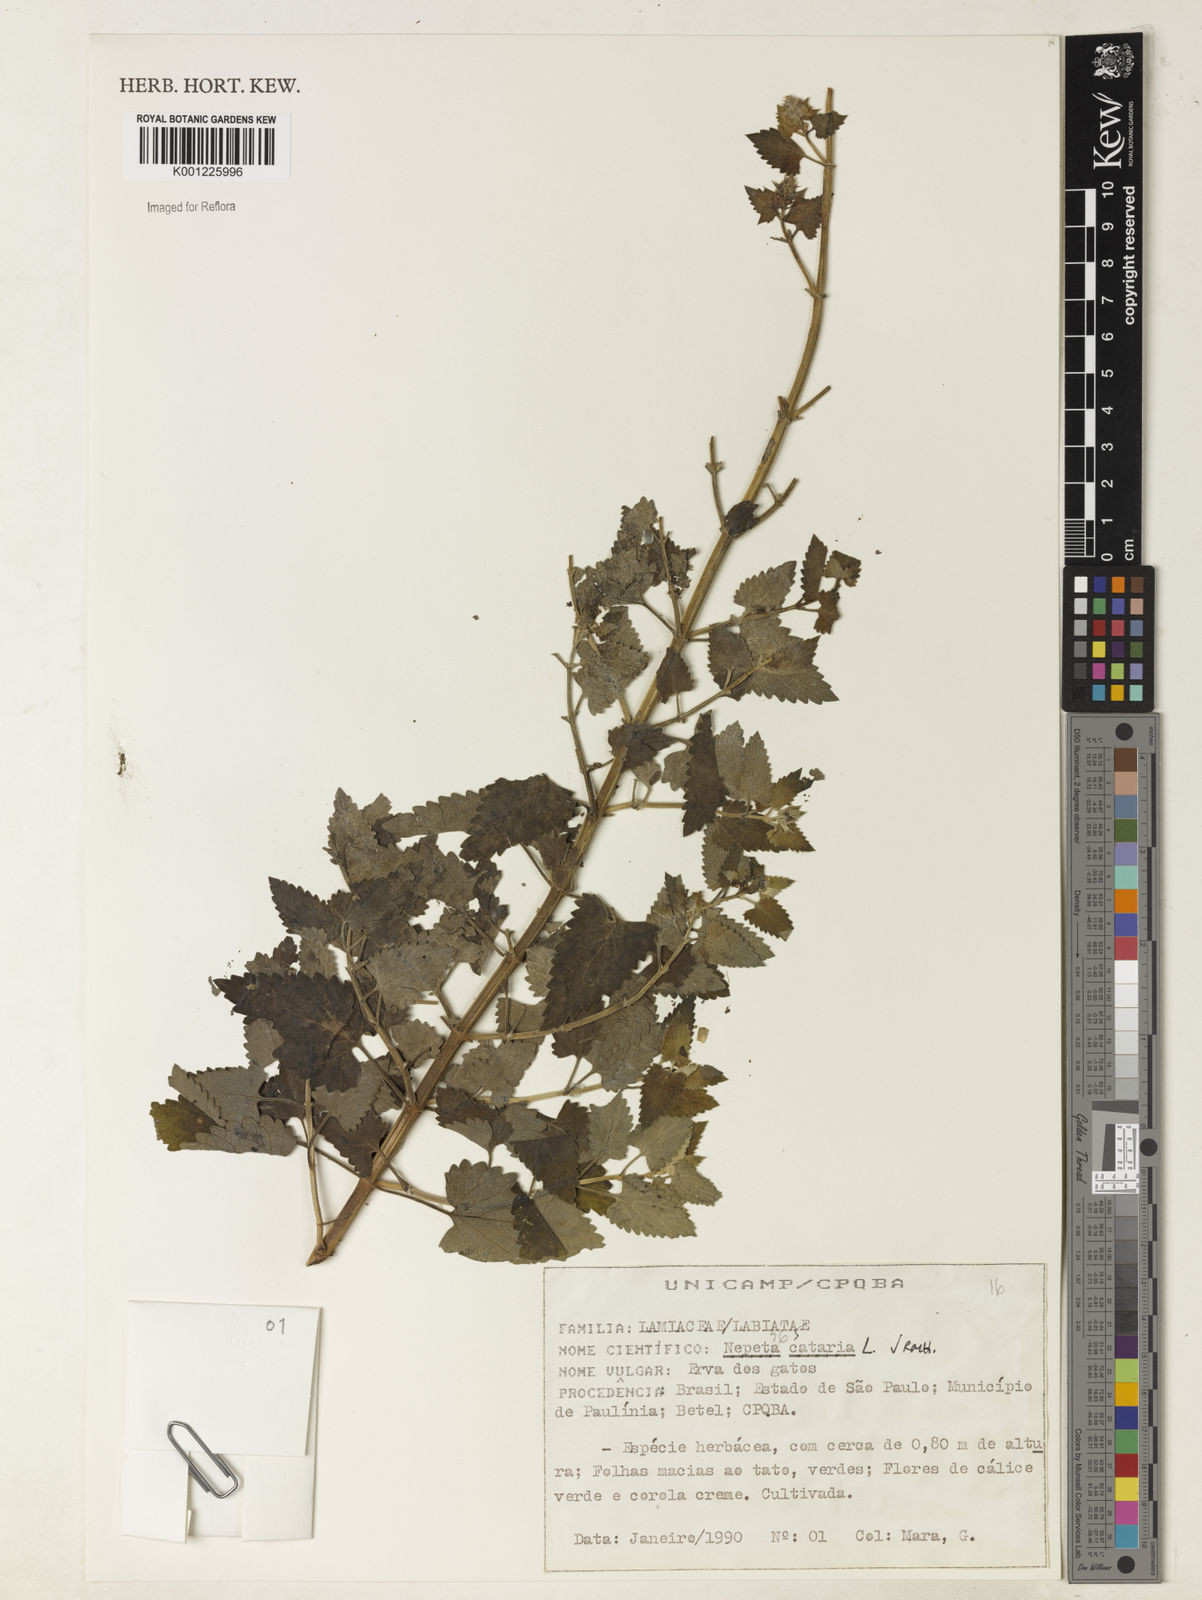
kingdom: Plantae
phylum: Tracheophyta
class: Magnoliopsida
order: Lamiales
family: Lamiaceae
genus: Nepeta
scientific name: Nepeta cataria
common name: Catnip
